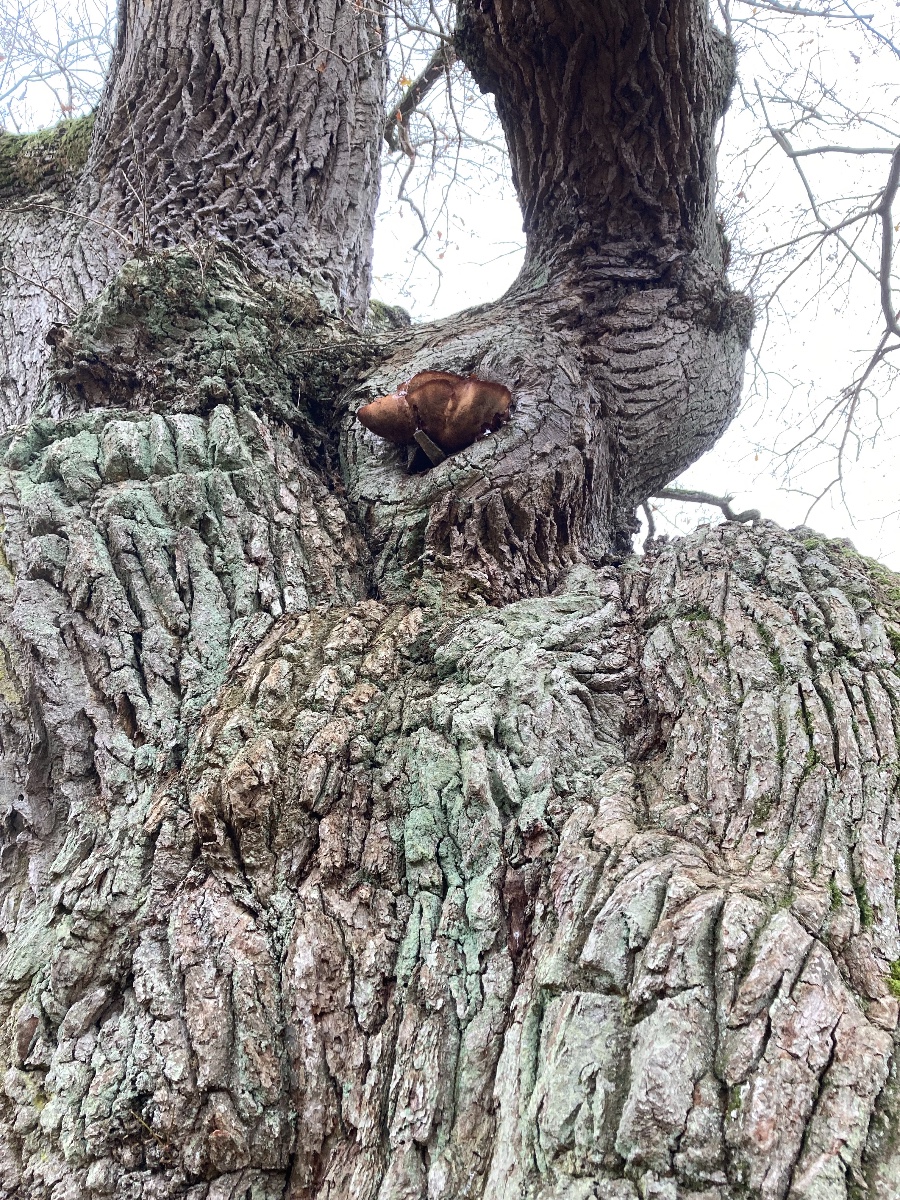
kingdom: Fungi
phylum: Basidiomycota
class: Agaricomycetes
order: Agaricales
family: Fistulinaceae
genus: Fistulina
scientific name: Fistulina hepatica
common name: oksetunge
